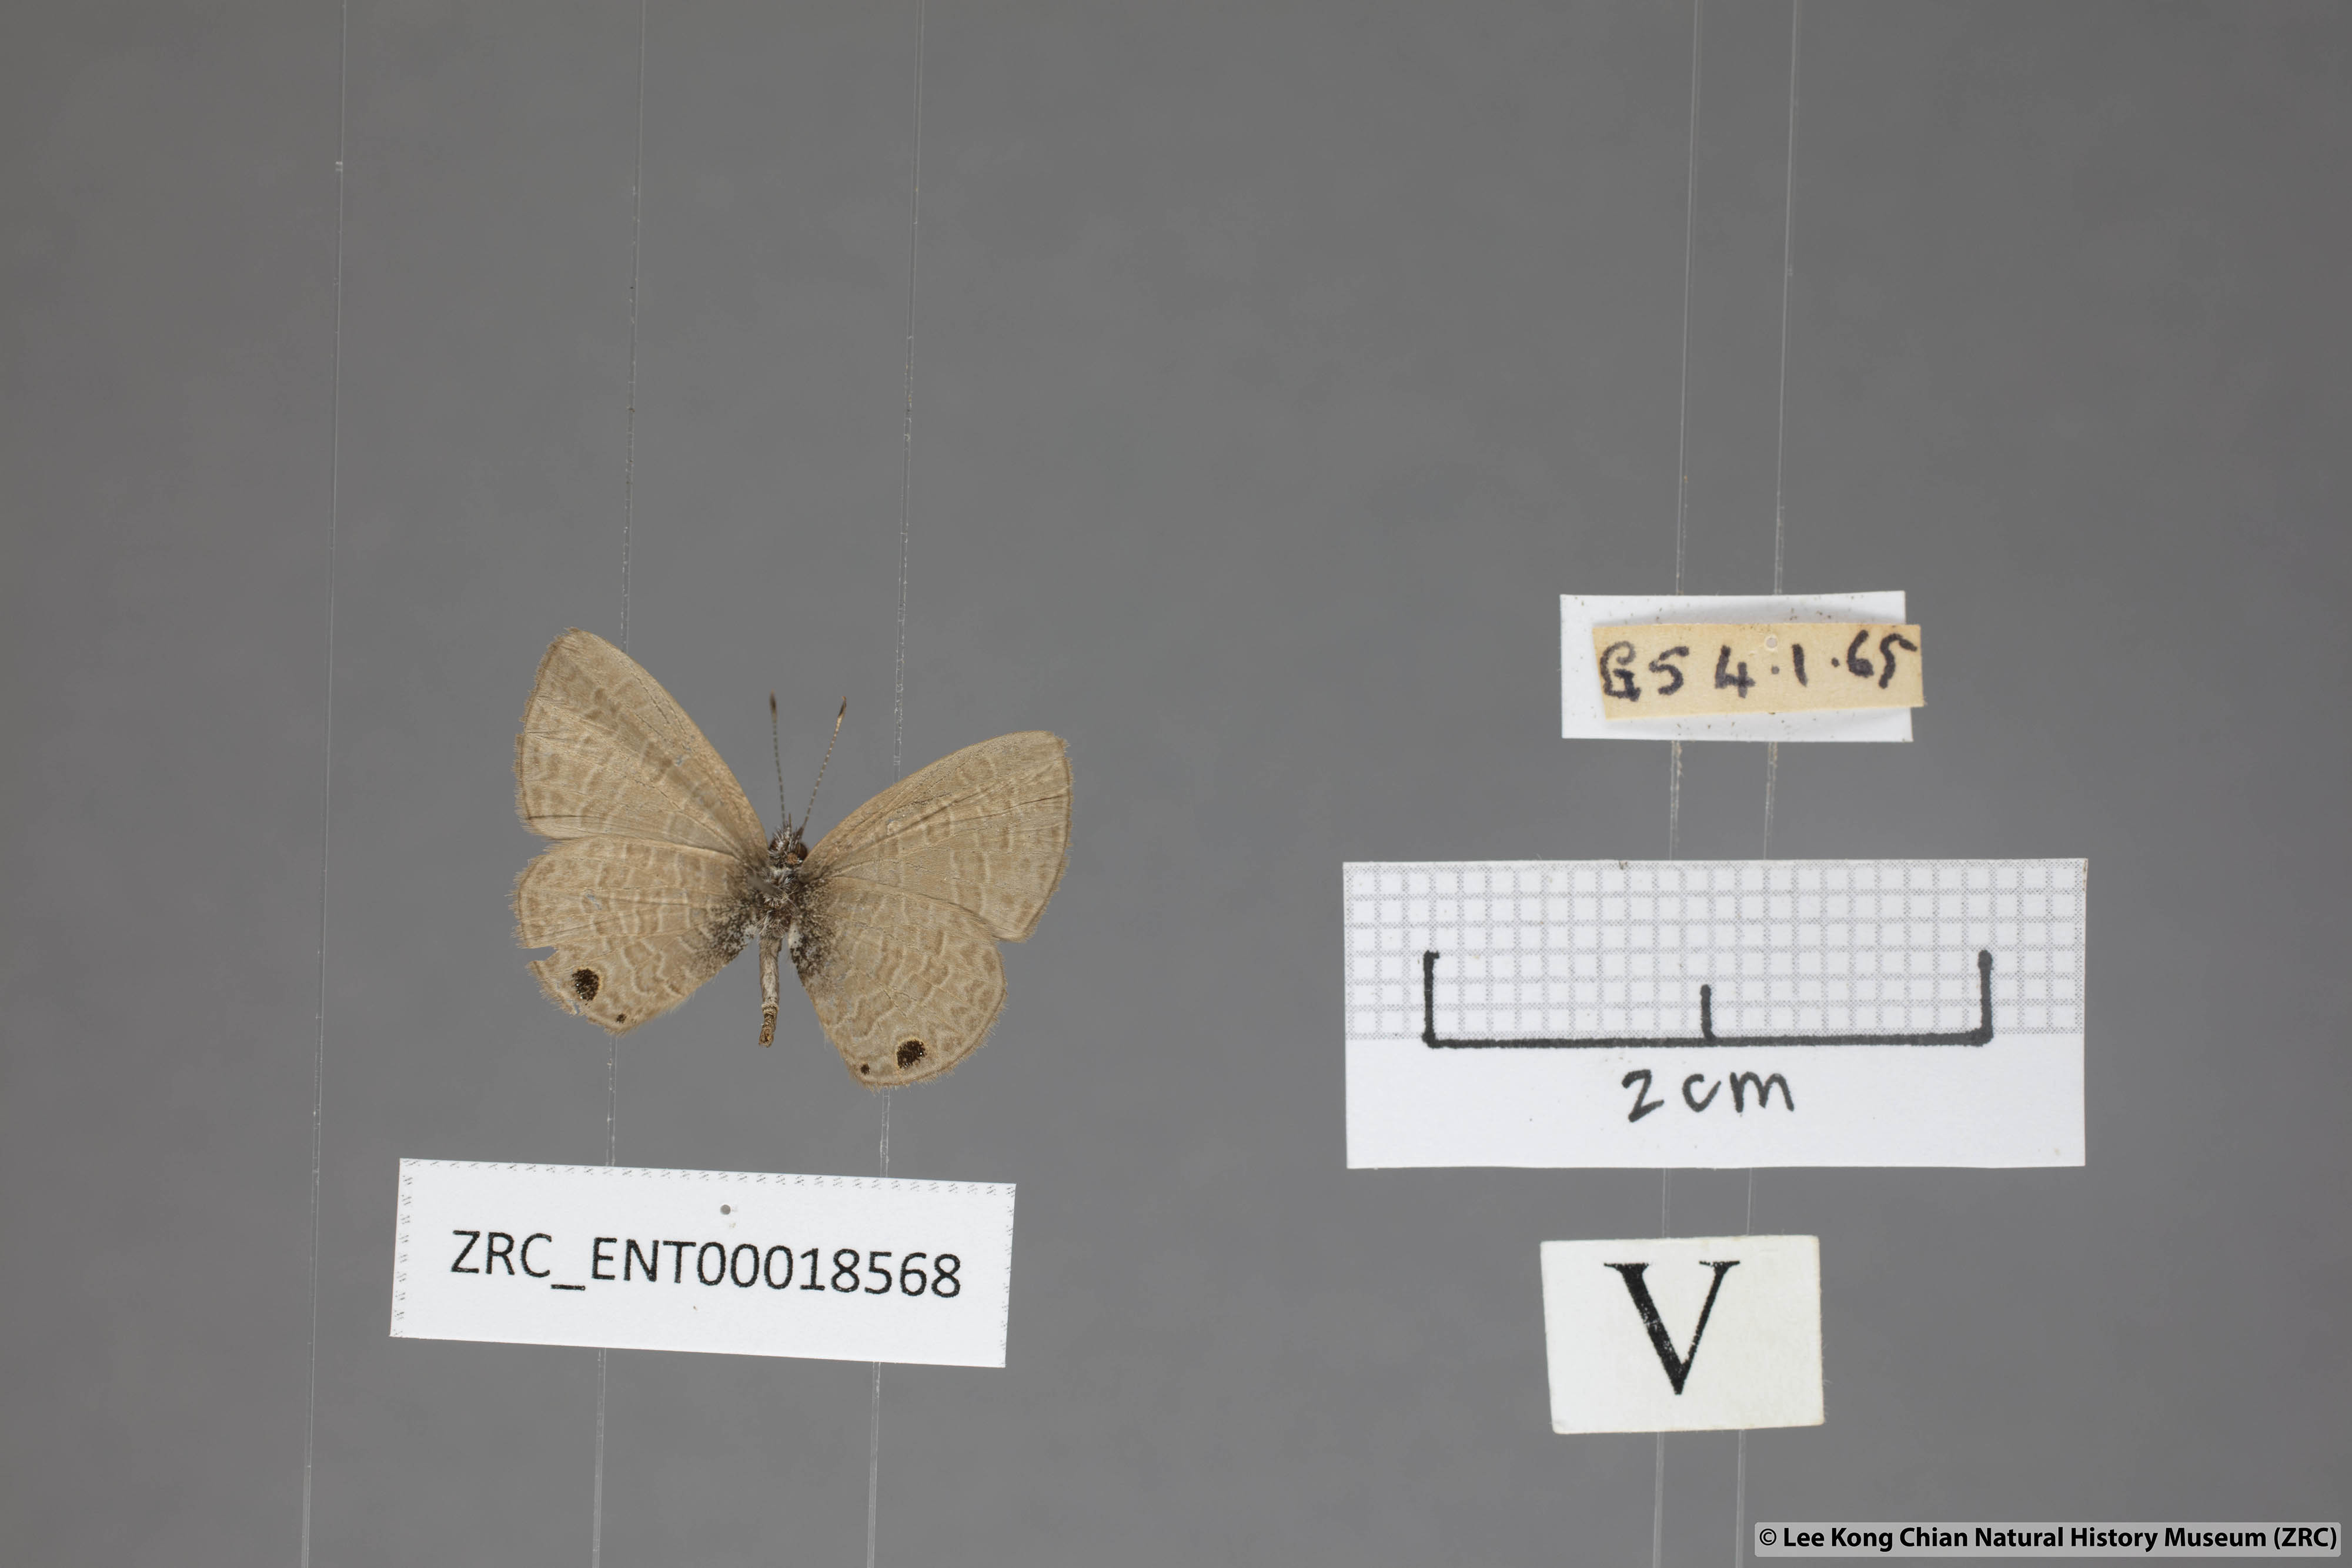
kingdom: Animalia
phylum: Arthropoda
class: Insecta
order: Lepidoptera
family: Lycaenidae
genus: Prosotas
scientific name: Prosotas dubiosa
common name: Tailless lineblue
